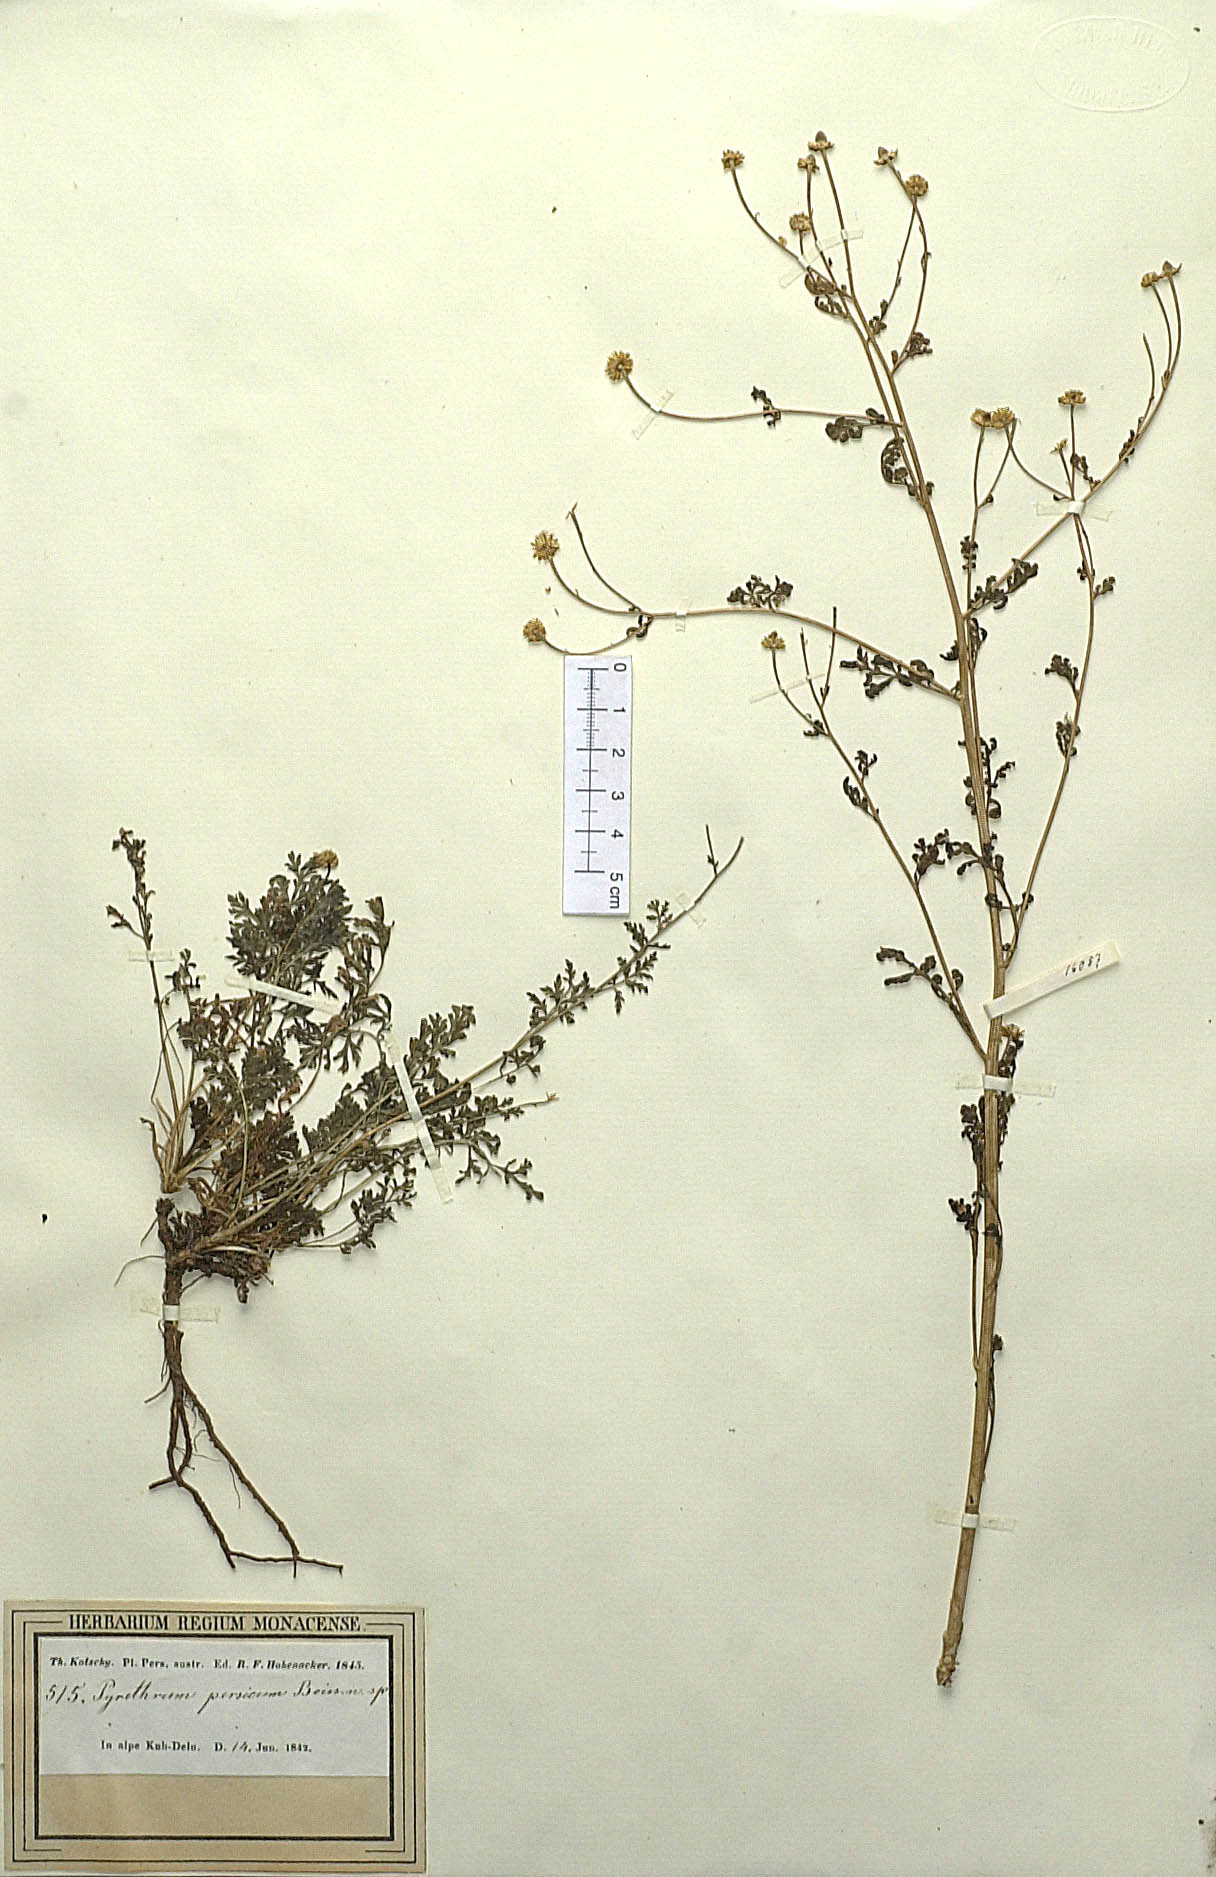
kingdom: Plantae
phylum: Tracheophyta
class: Magnoliopsida
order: Asterales
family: Asteraceae
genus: Tanacetum
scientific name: Tanacetum parthenium
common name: Feverfew
